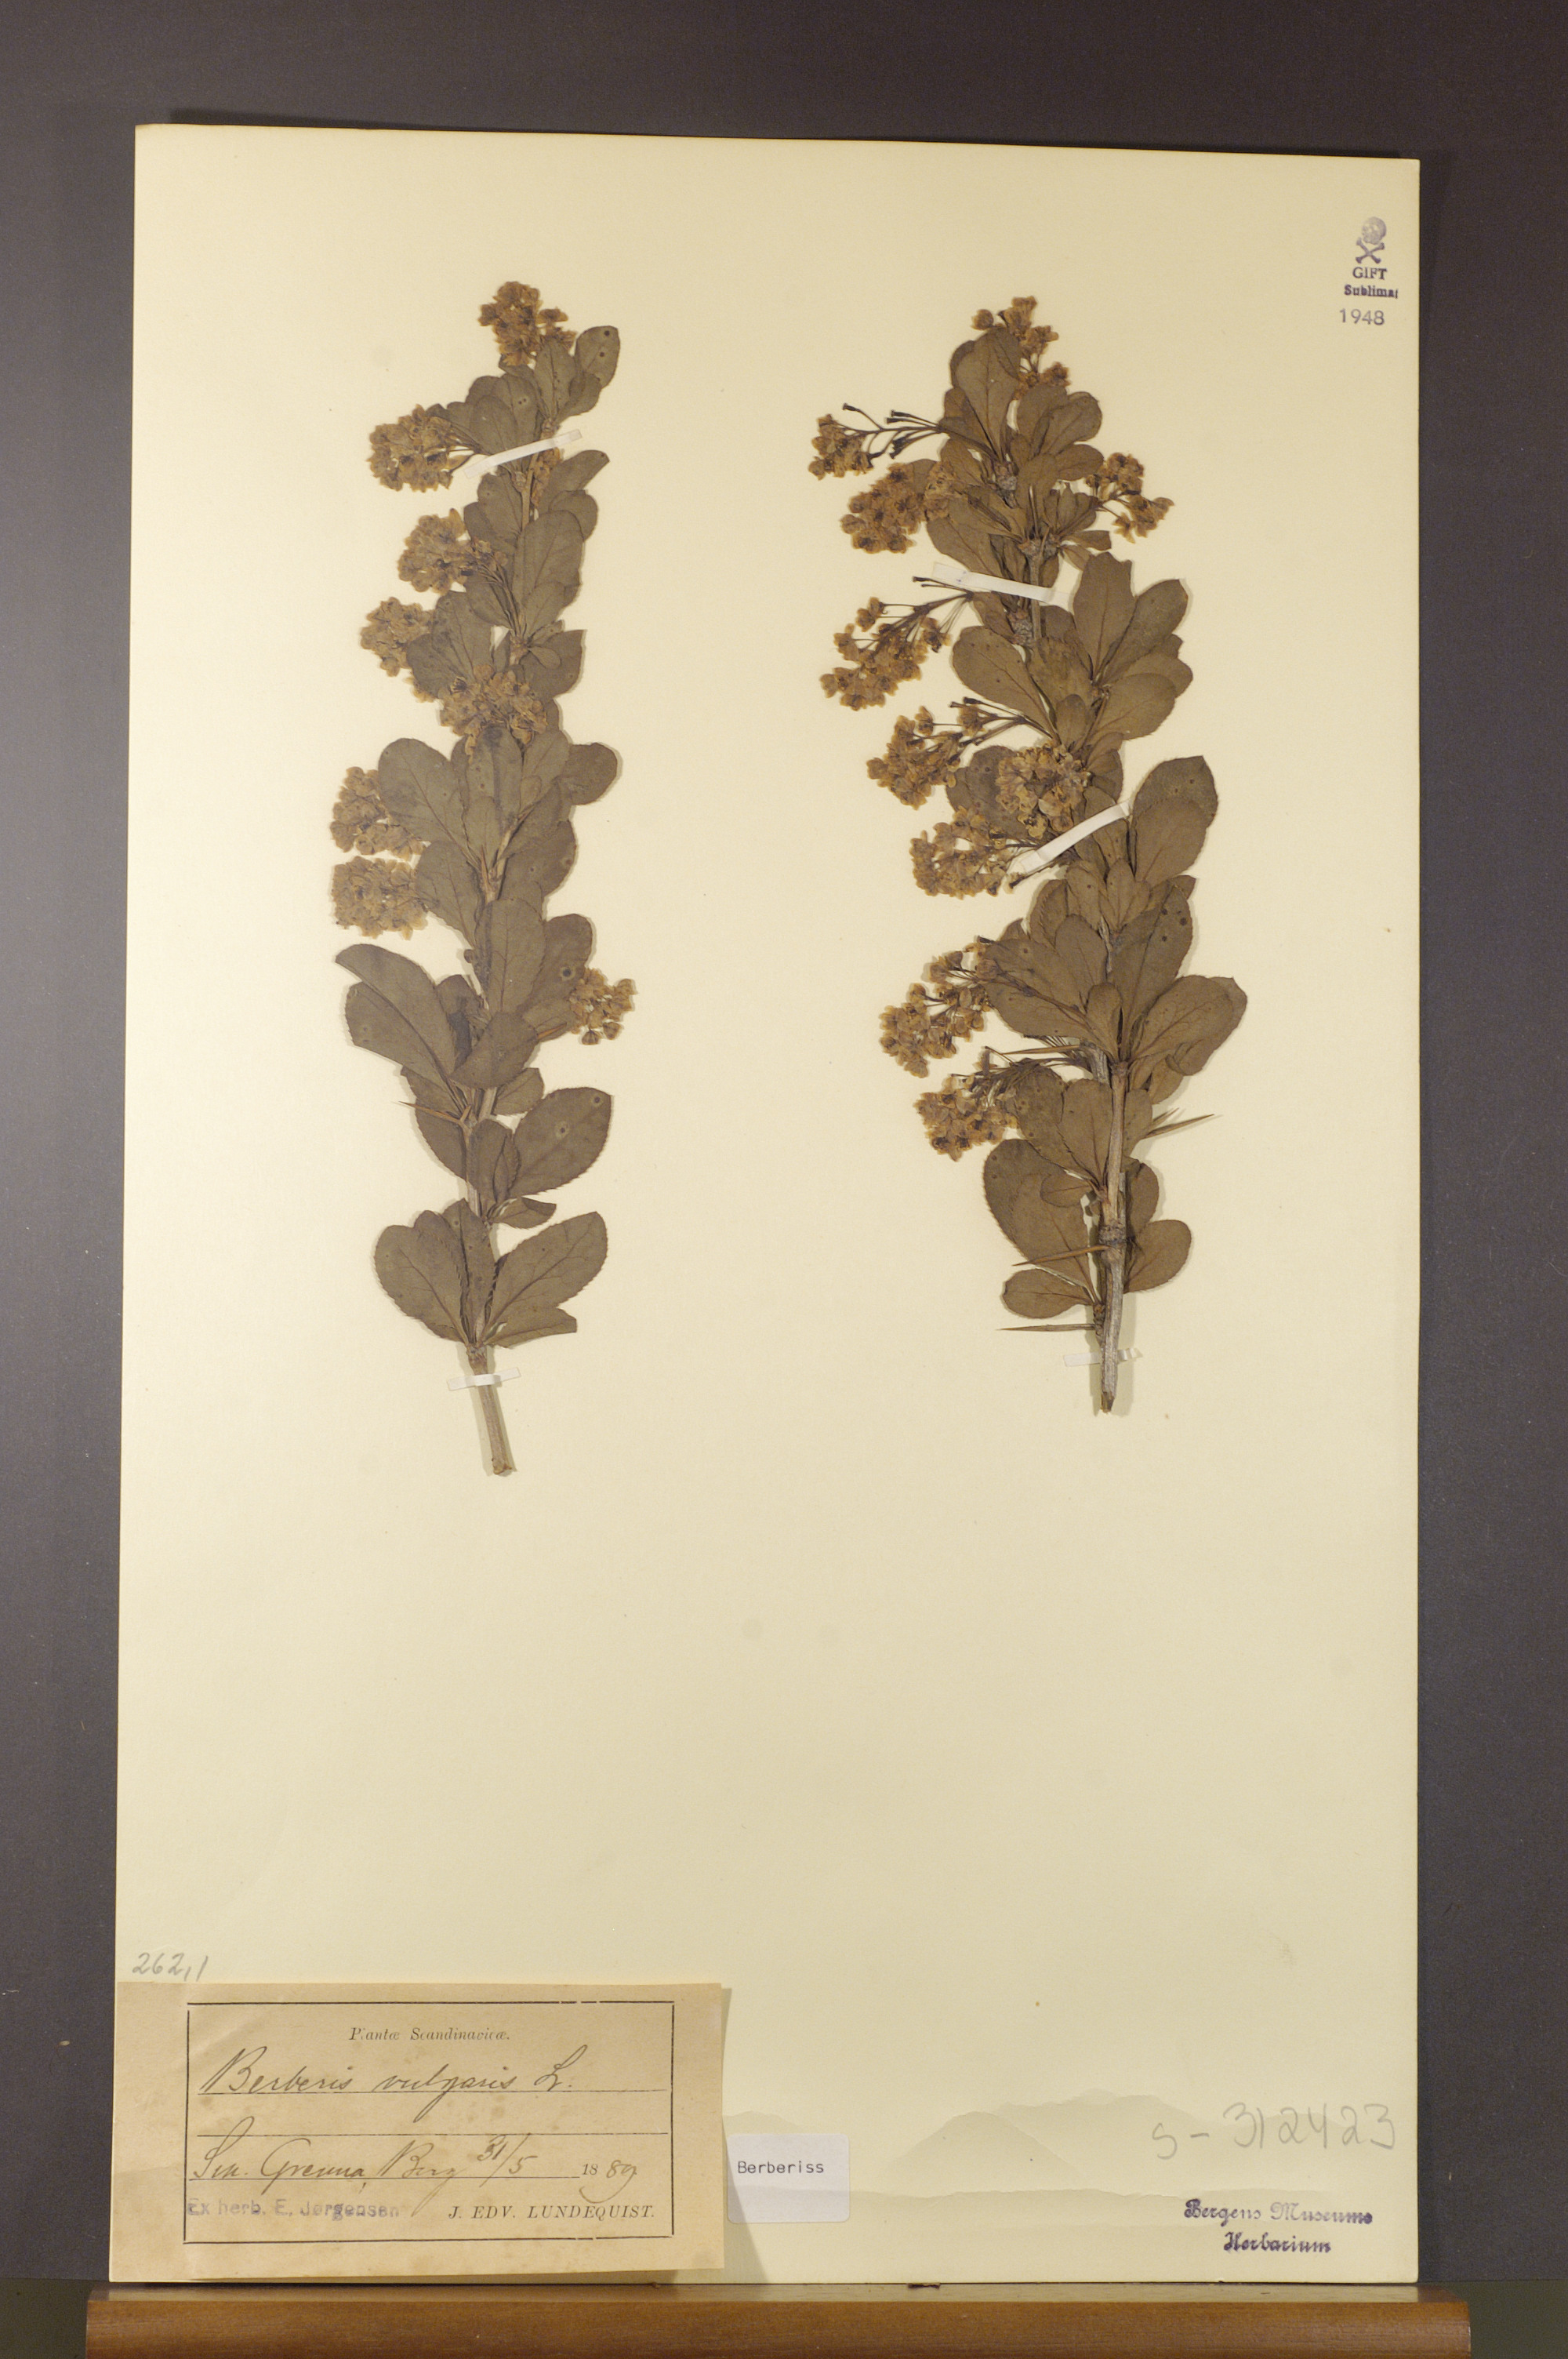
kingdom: Plantae
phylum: Tracheophyta
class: Magnoliopsida
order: Ranunculales
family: Berberidaceae
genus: Berberis
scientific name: Berberis vulgaris
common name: Barberry
